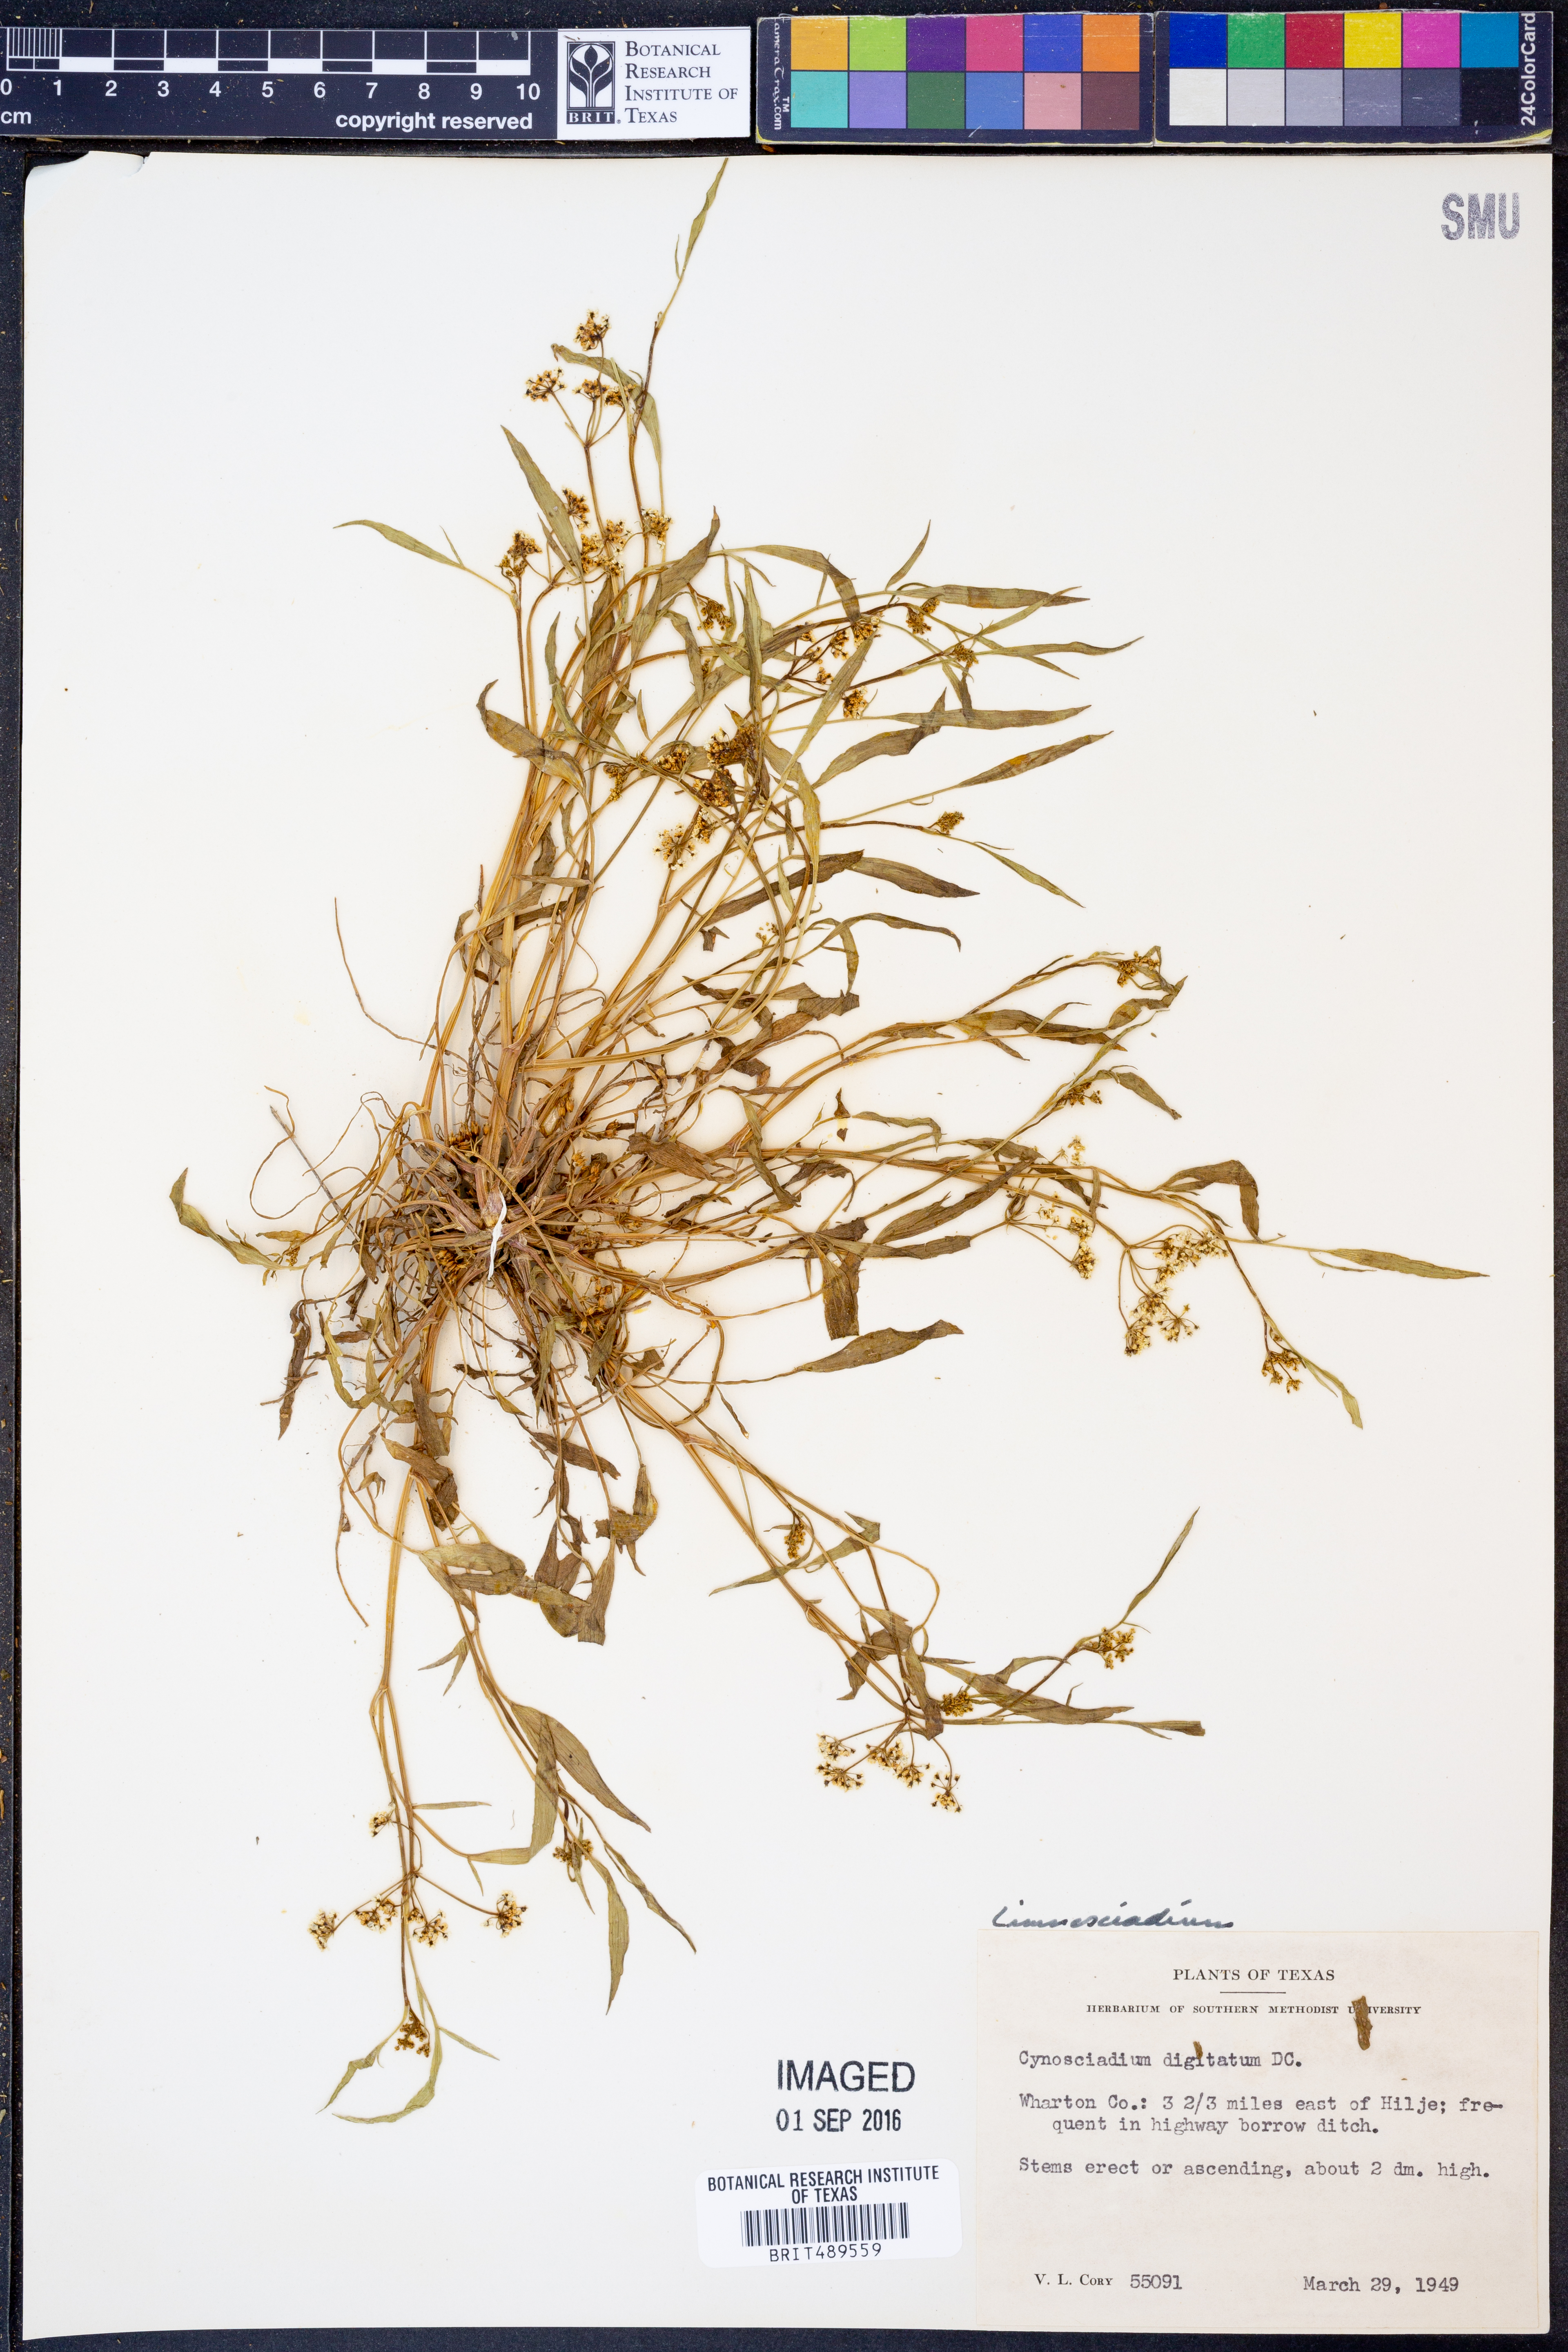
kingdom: Plantae
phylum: Tracheophyta
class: Magnoliopsida
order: Apiales
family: Apiaceae
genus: Limnosciadium
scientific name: Limnosciadium
